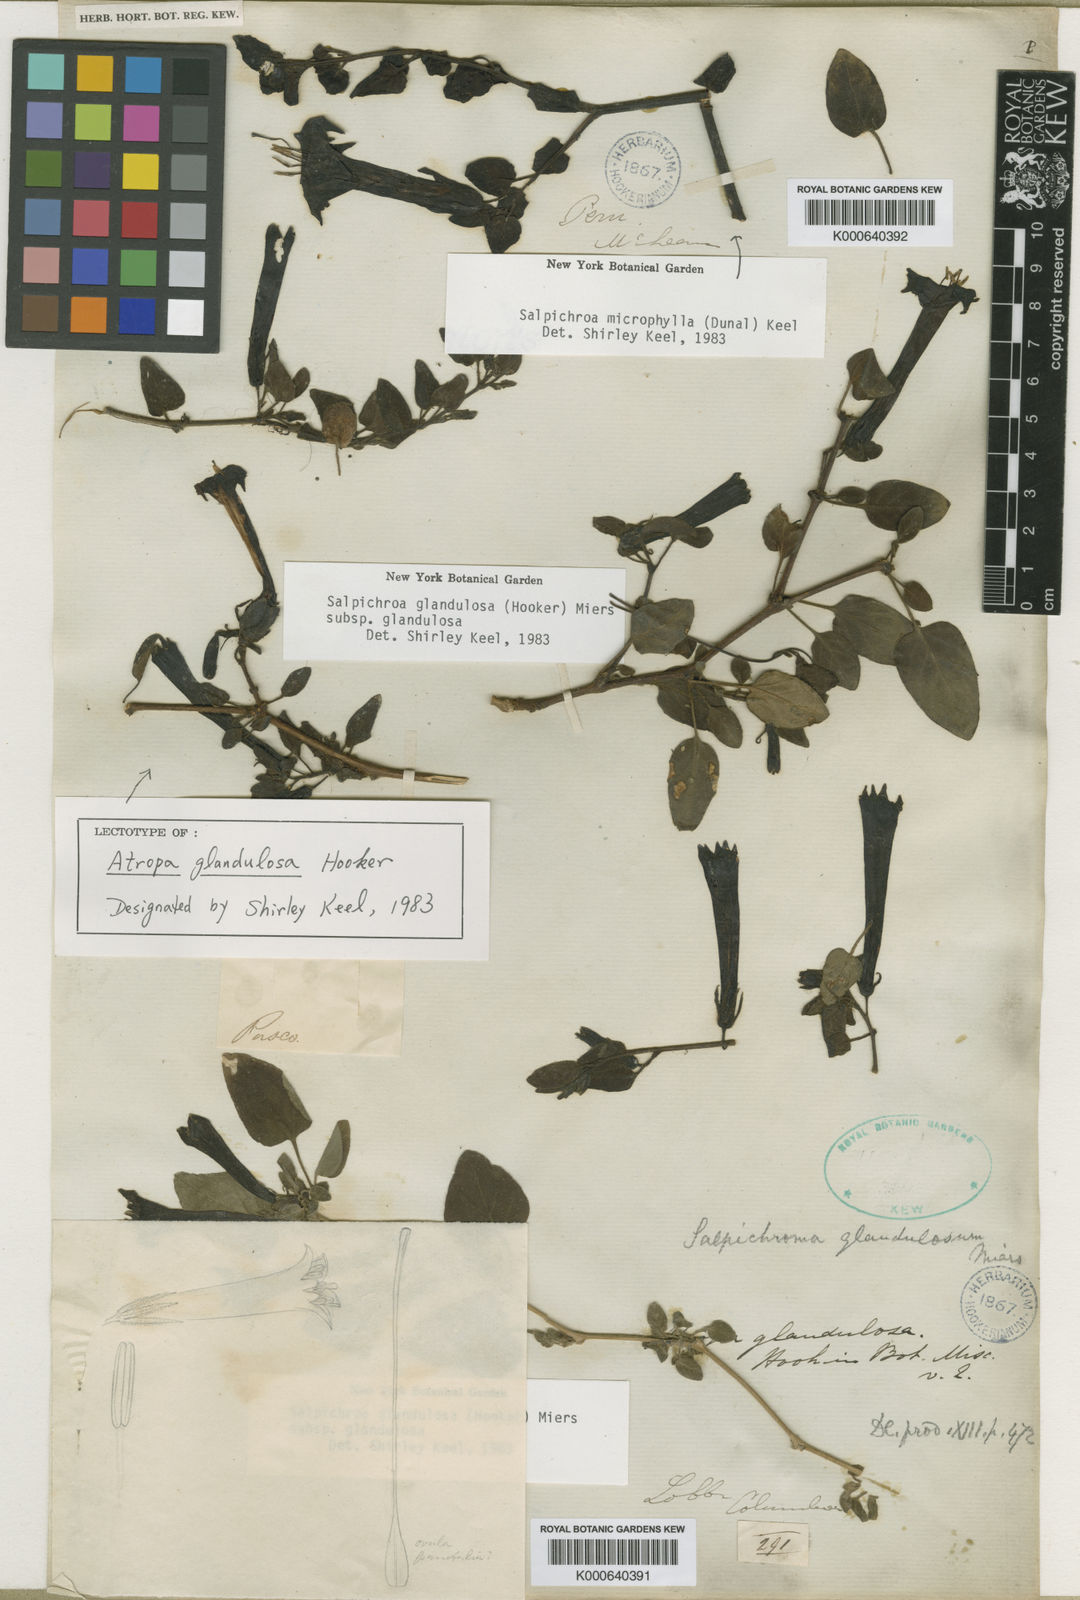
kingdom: Plantae
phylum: Tracheophyta
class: Magnoliopsida
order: Solanales
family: Solanaceae
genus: Salpichroa
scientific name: Salpichroa glandulosa
